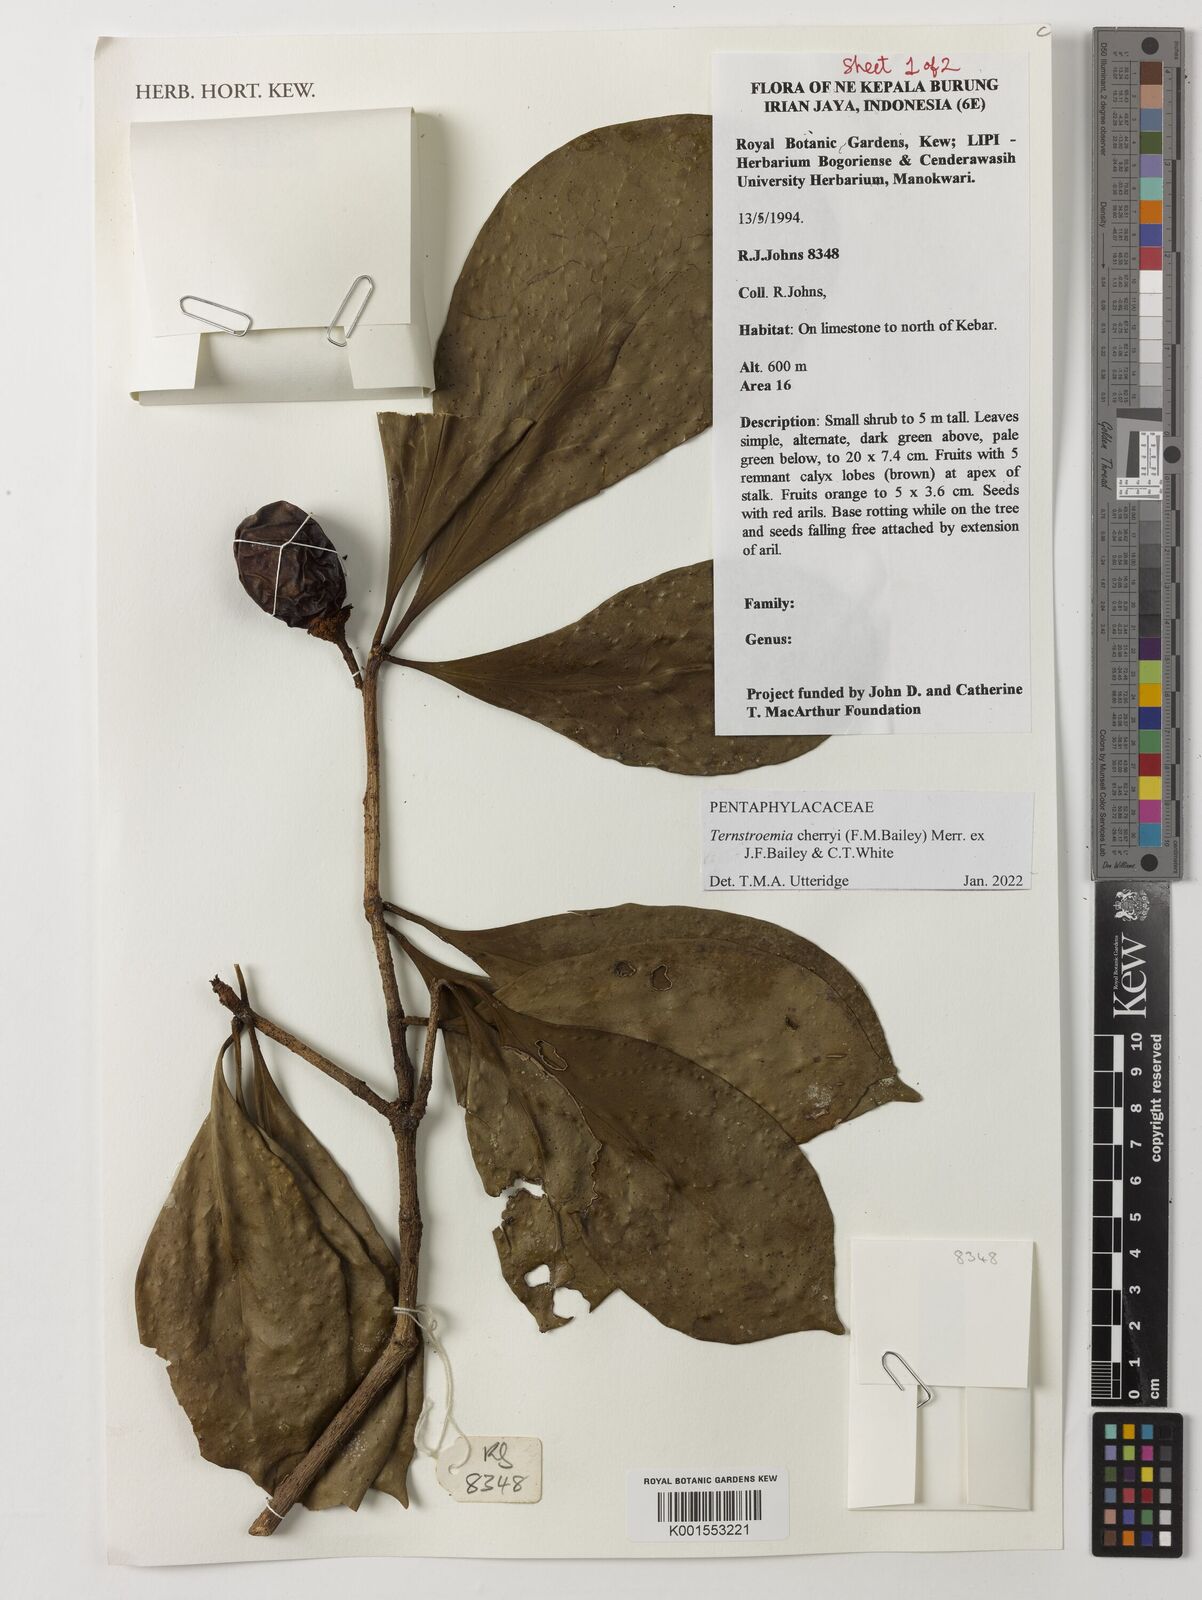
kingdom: Plantae
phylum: Tracheophyta
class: Magnoliopsida
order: Ericales
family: Pentaphylacaceae
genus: Ternstroemia
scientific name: Ternstroemia cherryi
